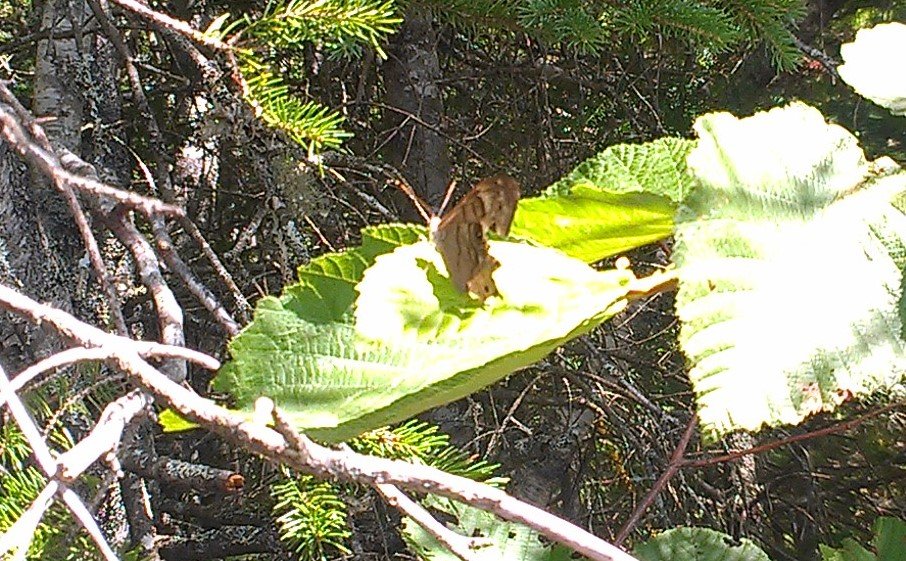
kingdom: Animalia
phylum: Arthropoda
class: Insecta
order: Lepidoptera
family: Nymphalidae
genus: Lethe
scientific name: Lethe anthedon
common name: Northern Pearly-Eye
